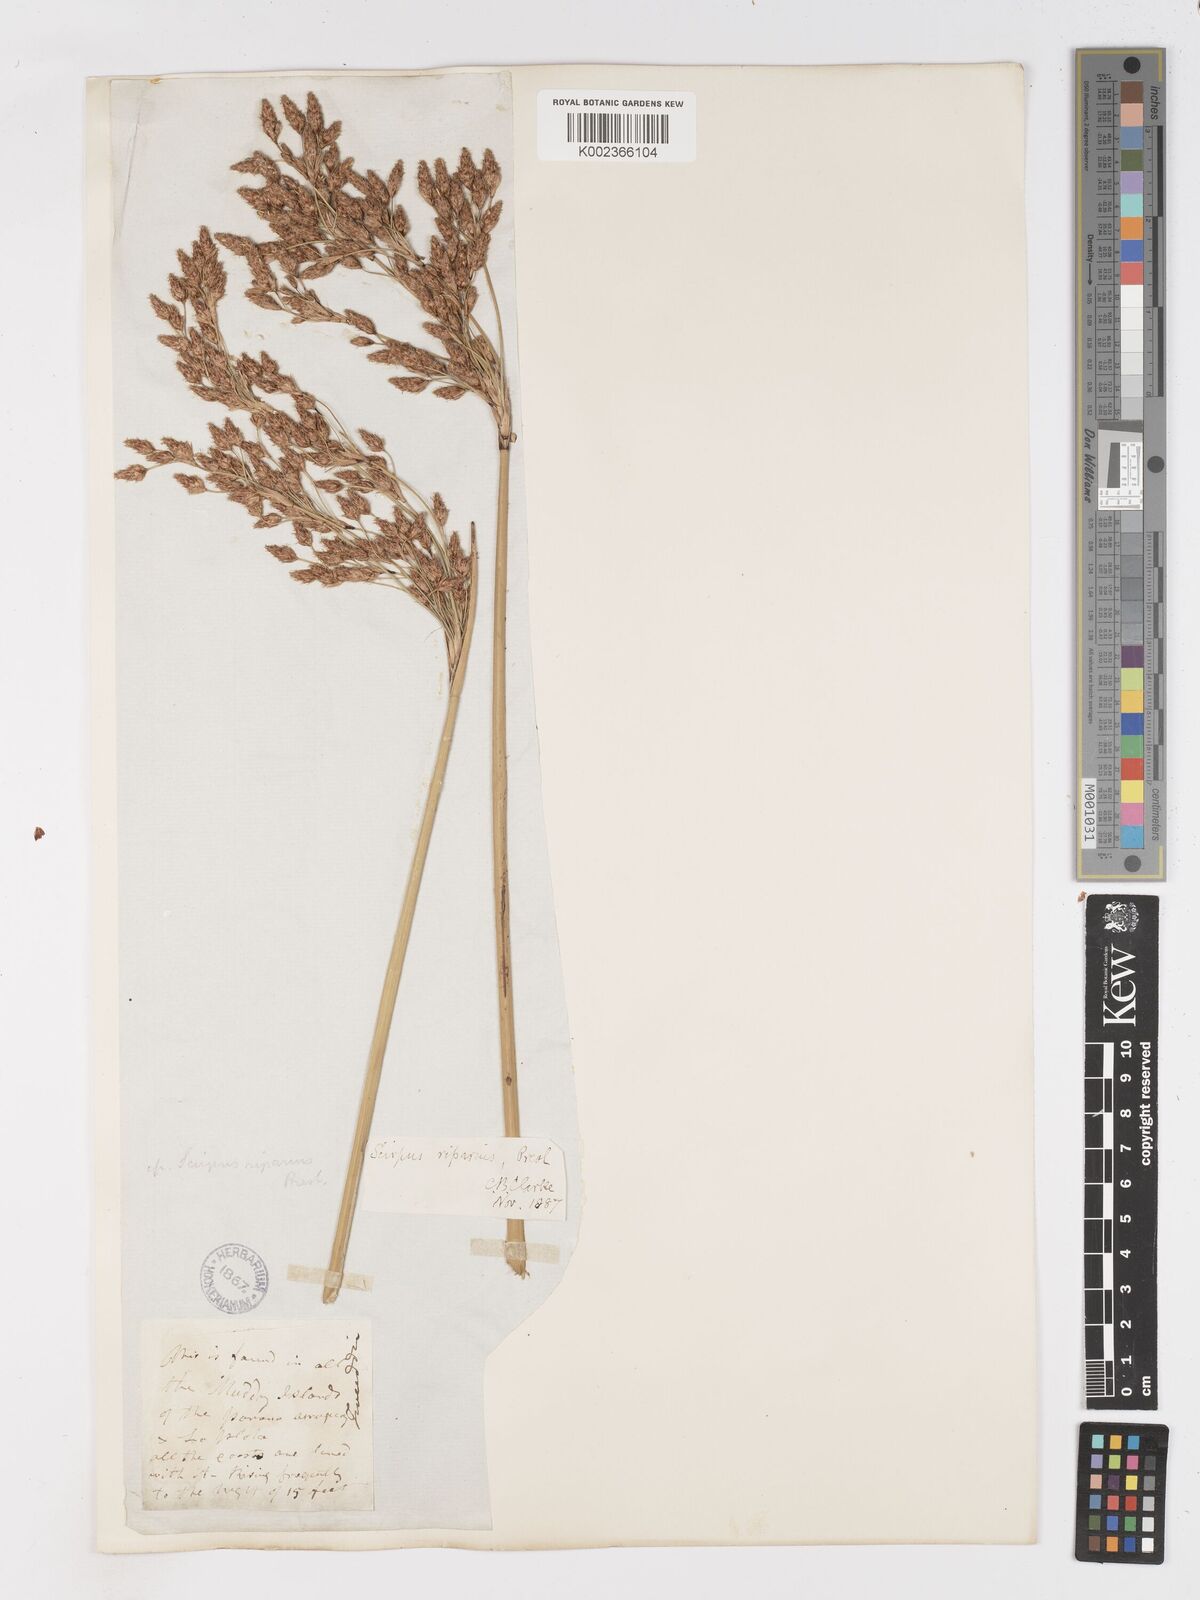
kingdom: Plantae
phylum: Tracheophyta
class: Liliopsida
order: Poales
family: Cyperaceae
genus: Schoenoplectus
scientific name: Schoenoplectus californicus
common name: California bulrush
